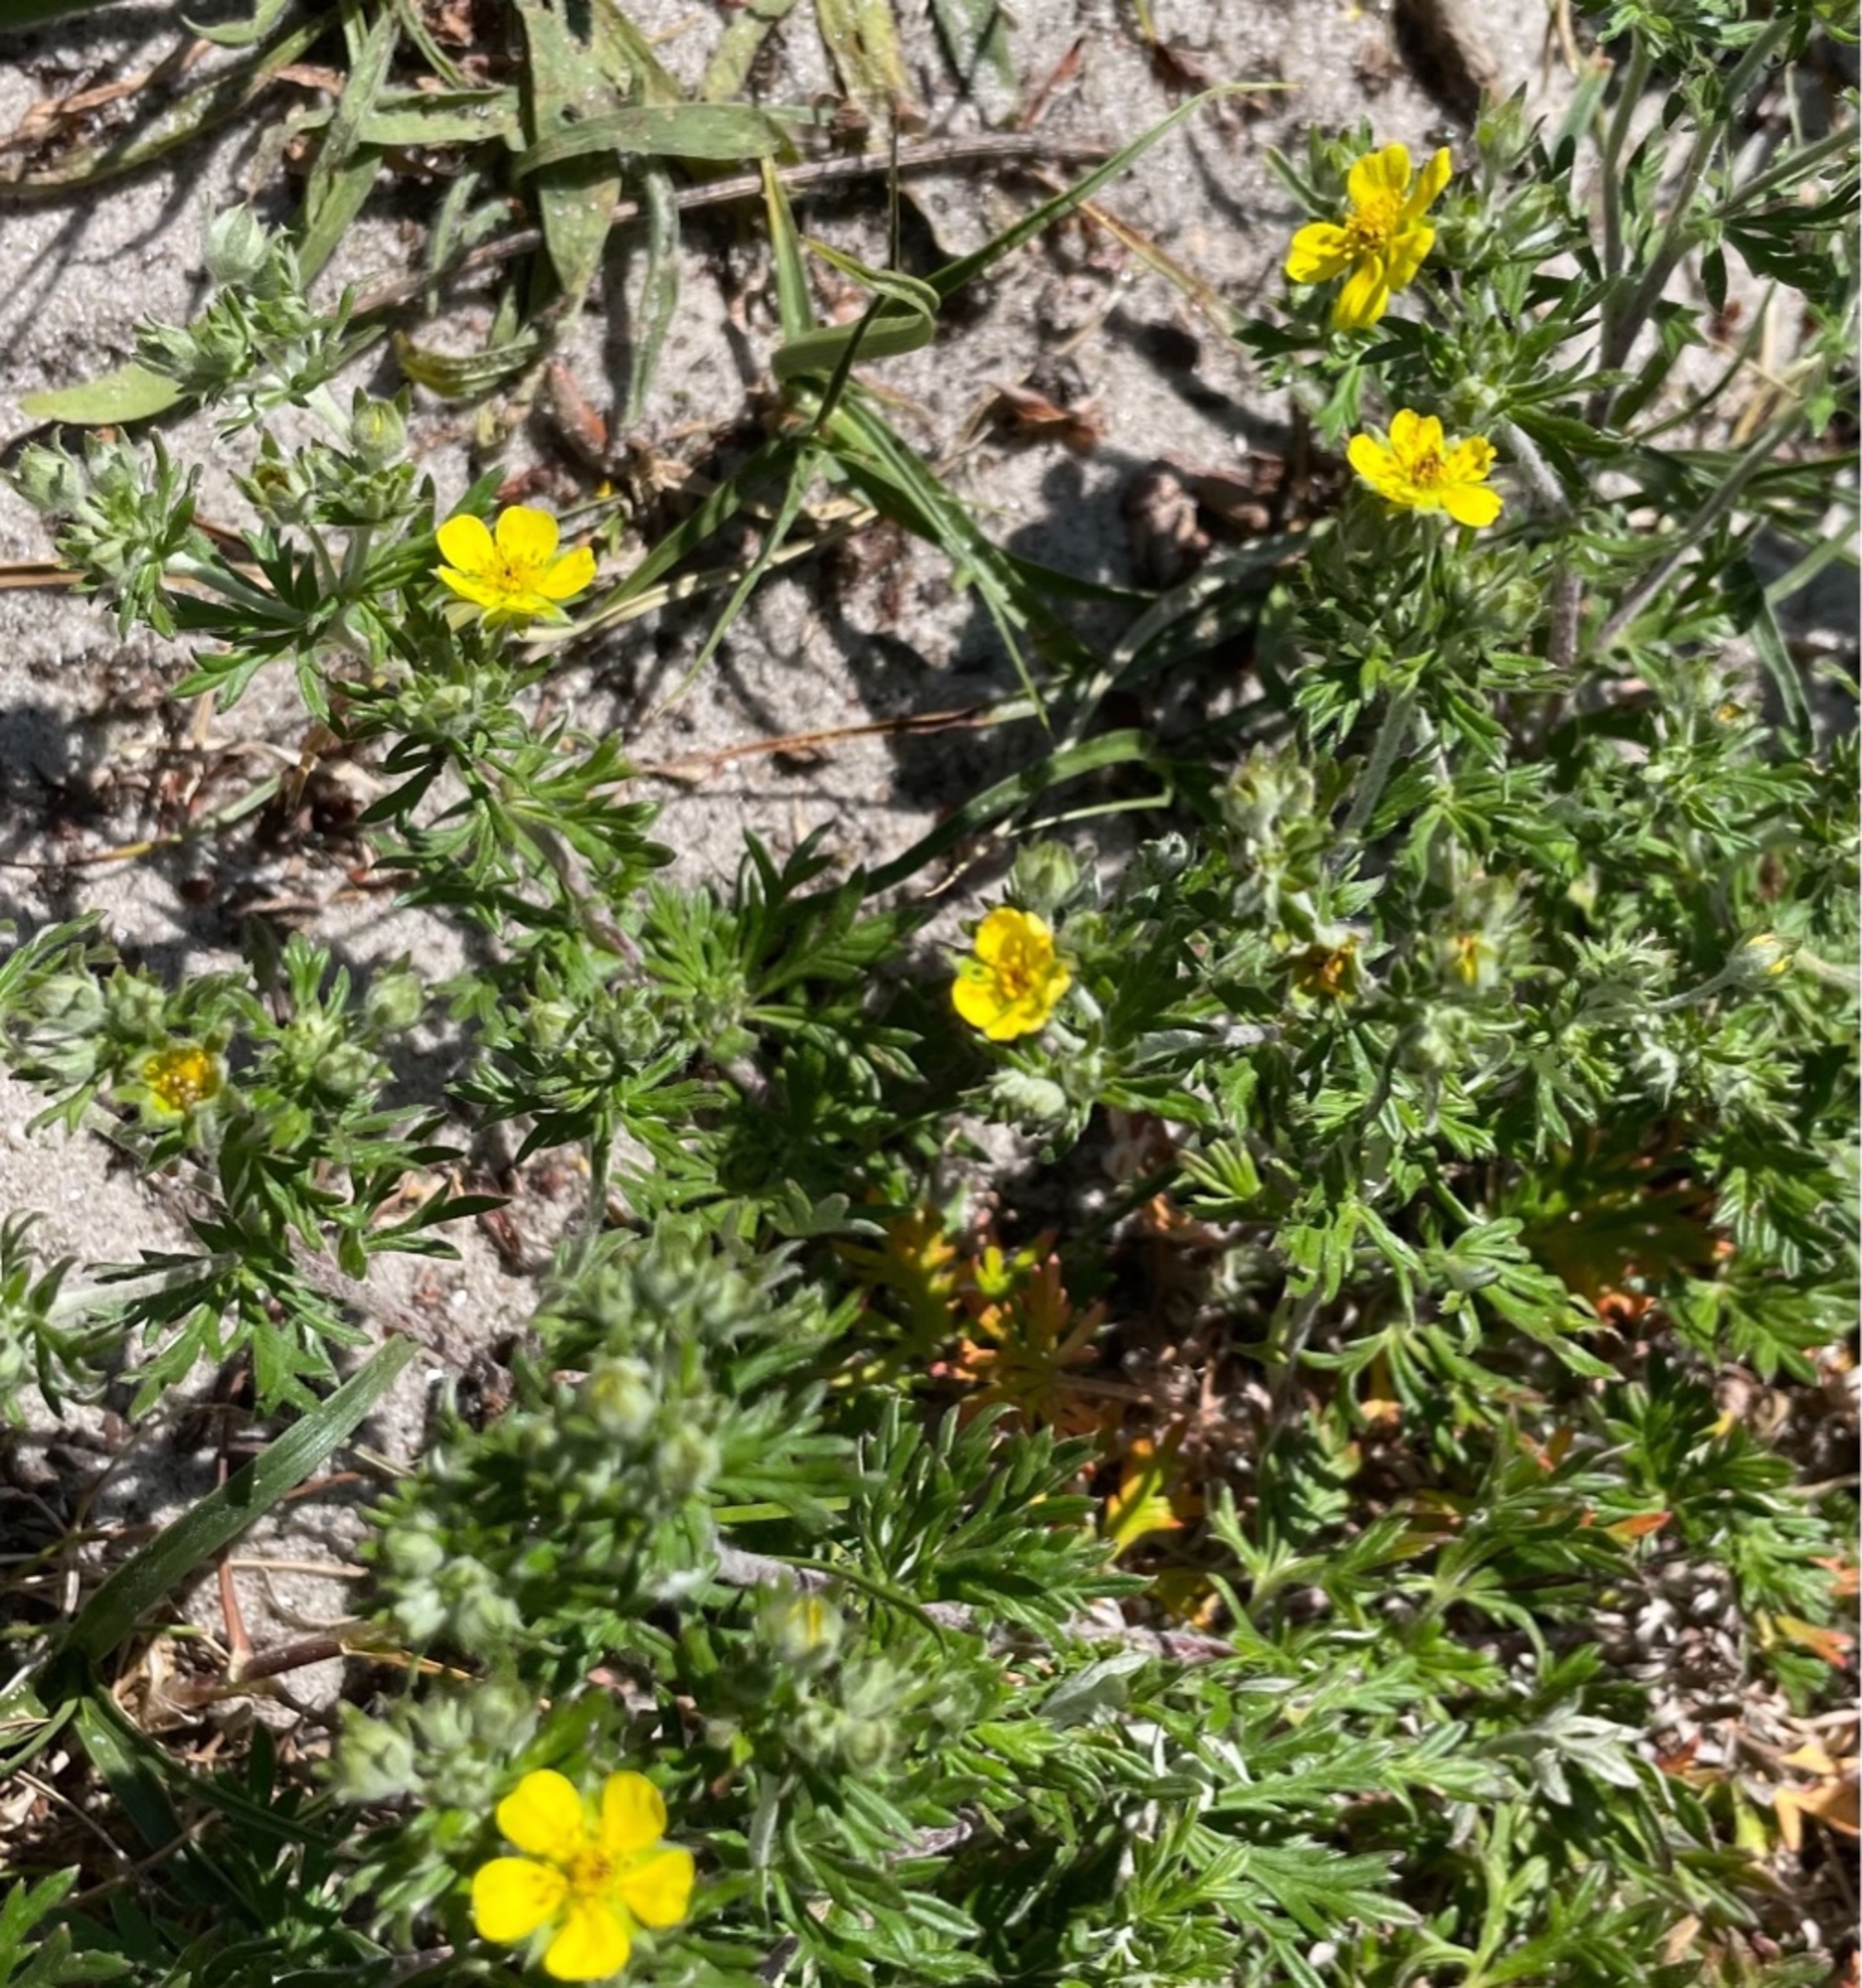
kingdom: Plantae
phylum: Tracheophyta
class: Magnoliopsida
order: Rosales
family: Rosaceae
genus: Potentilla
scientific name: Potentilla argentea
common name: Sølv-potentil
